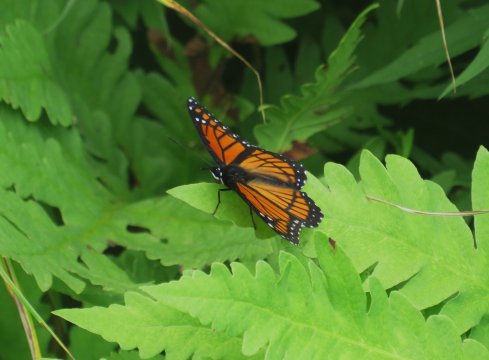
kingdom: Animalia
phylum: Arthropoda
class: Insecta
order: Lepidoptera
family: Nymphalidae
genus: Limenitis
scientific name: Limenitis archippus
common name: Viceroy
